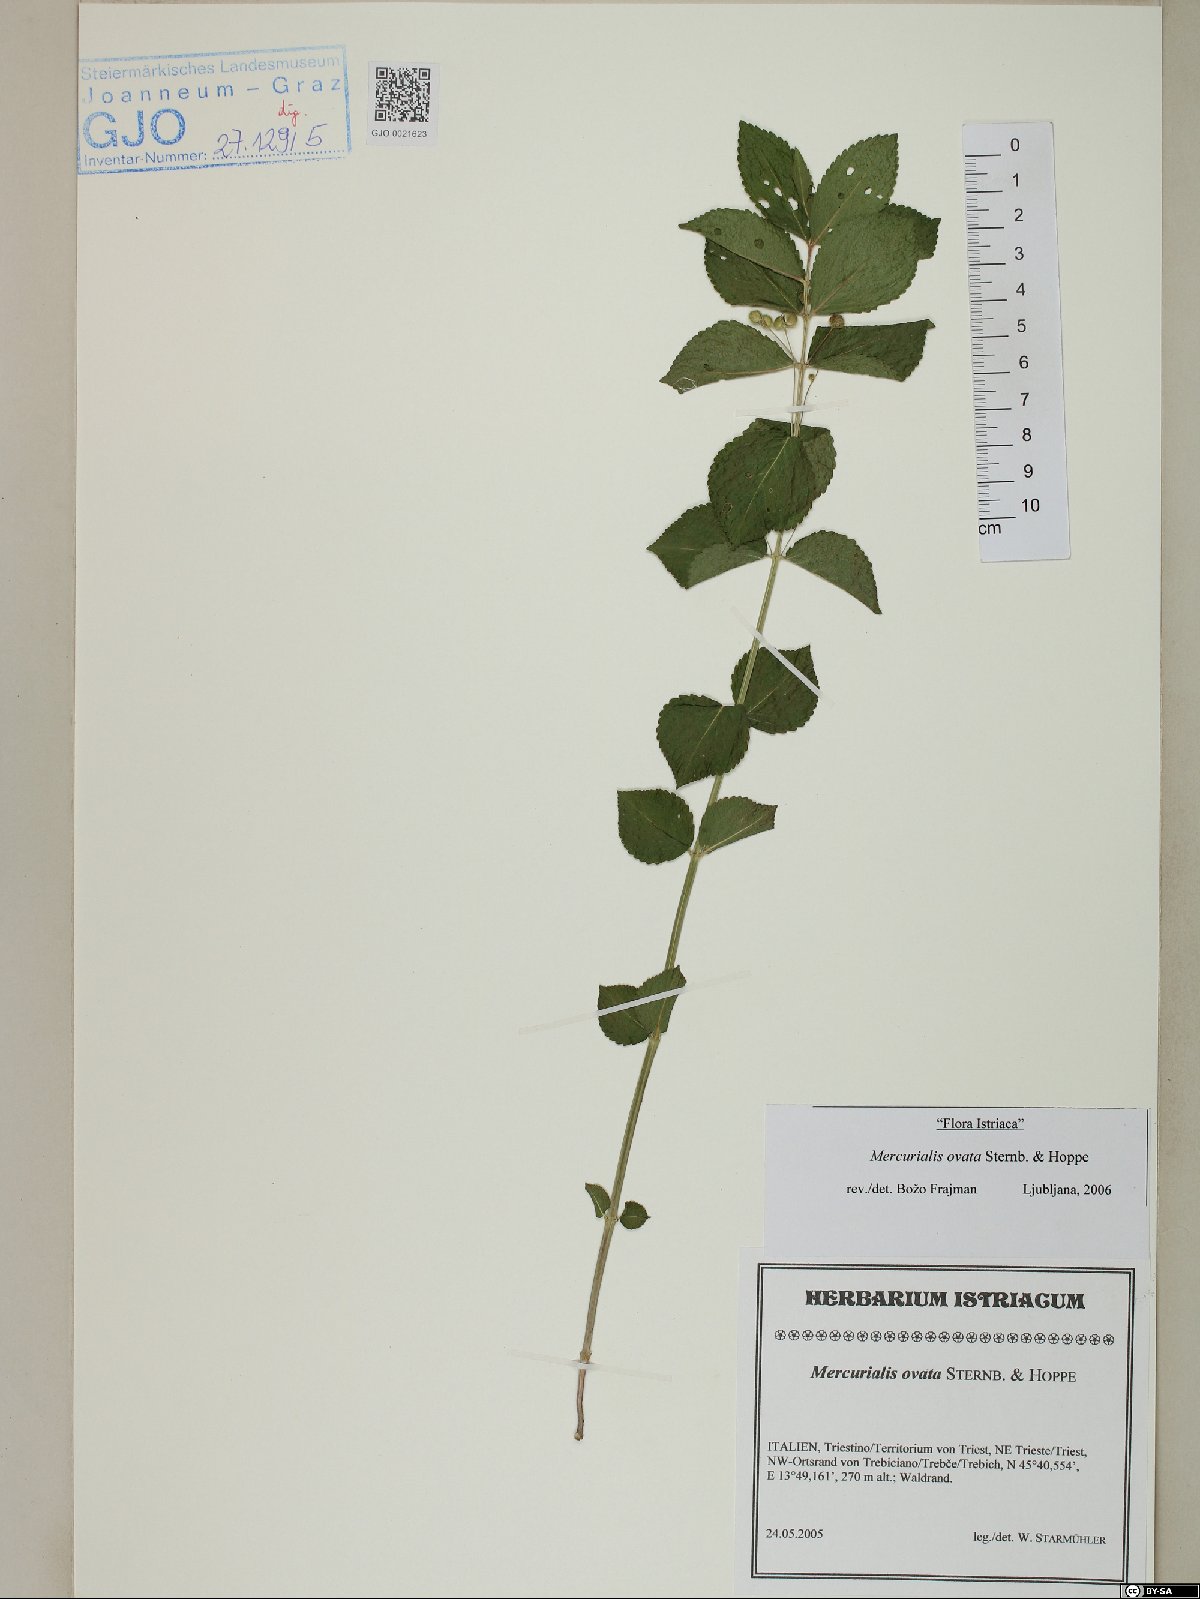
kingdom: Plantae
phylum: Tracheophyta
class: Magnoliopsida
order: Malpighiales
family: Euphorbiaceae
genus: Mercurialis
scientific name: Mercurialis ovata
